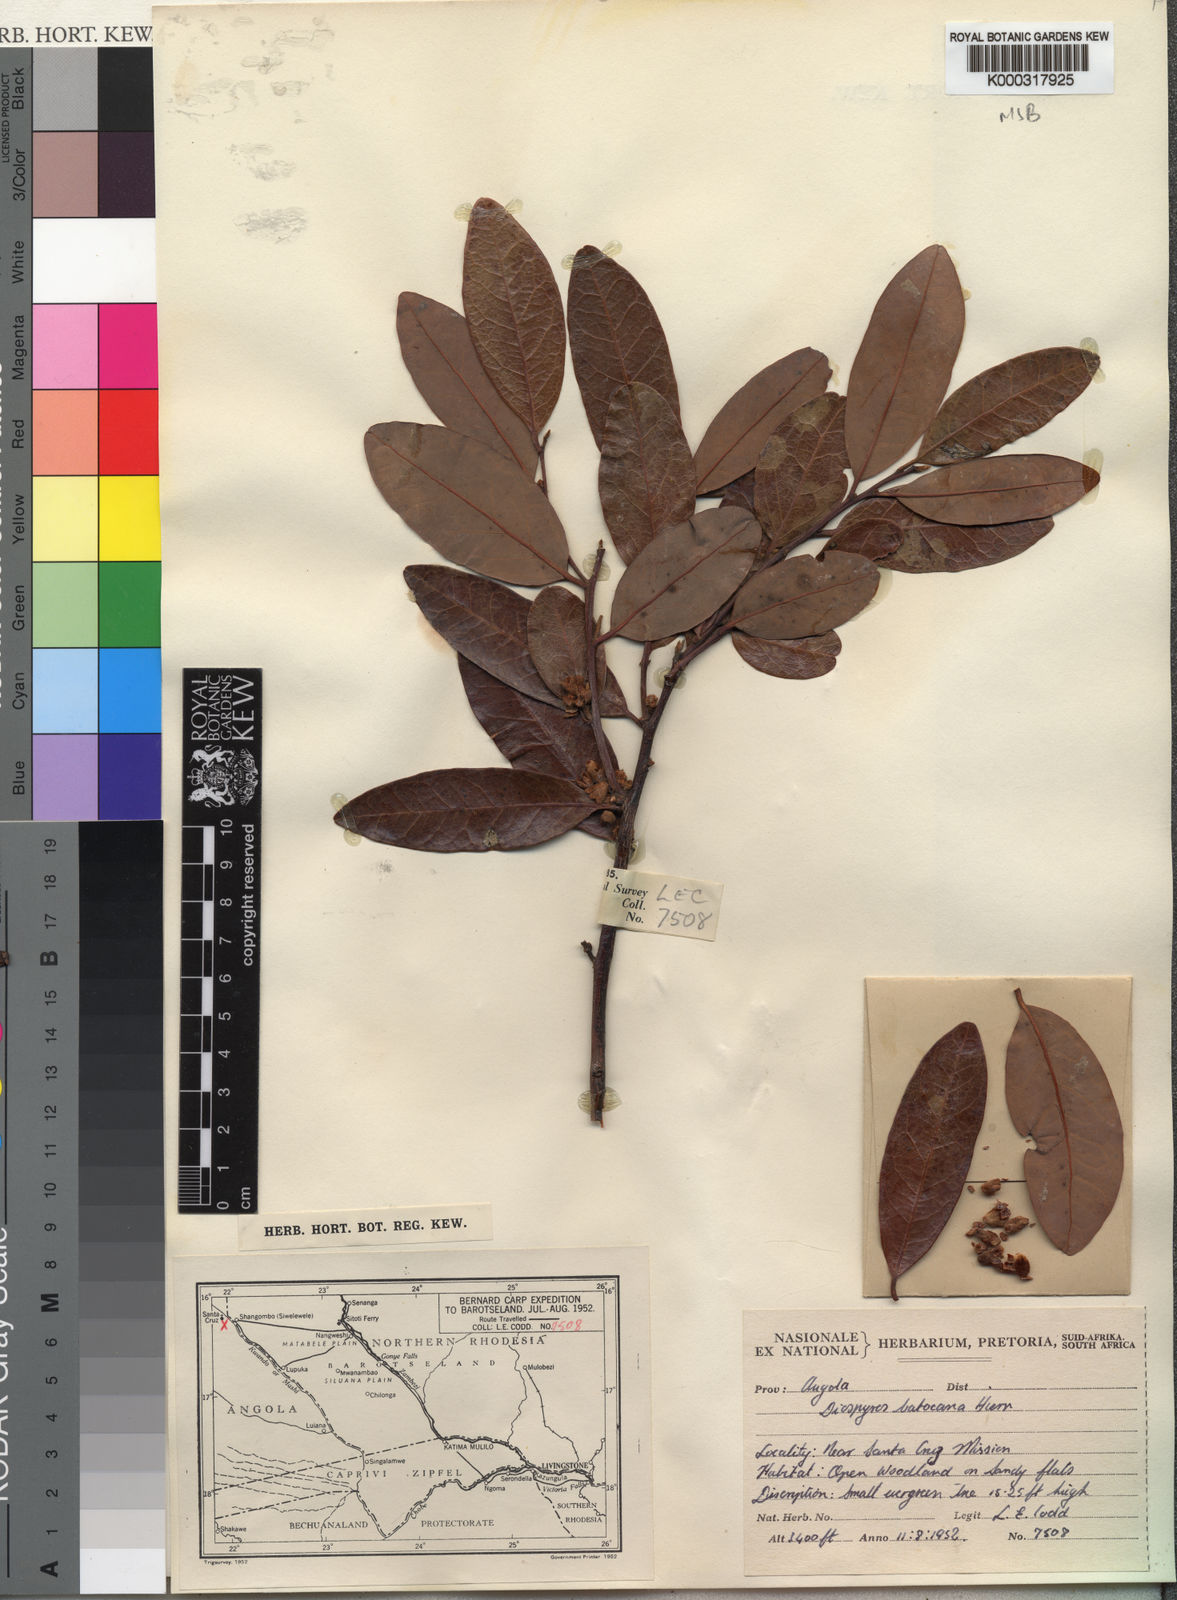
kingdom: Plantae
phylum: Tracheophyta
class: Magnoliopsida
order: Ericales
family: Ebenaceae
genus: Diospyros
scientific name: Diospyros batocana
